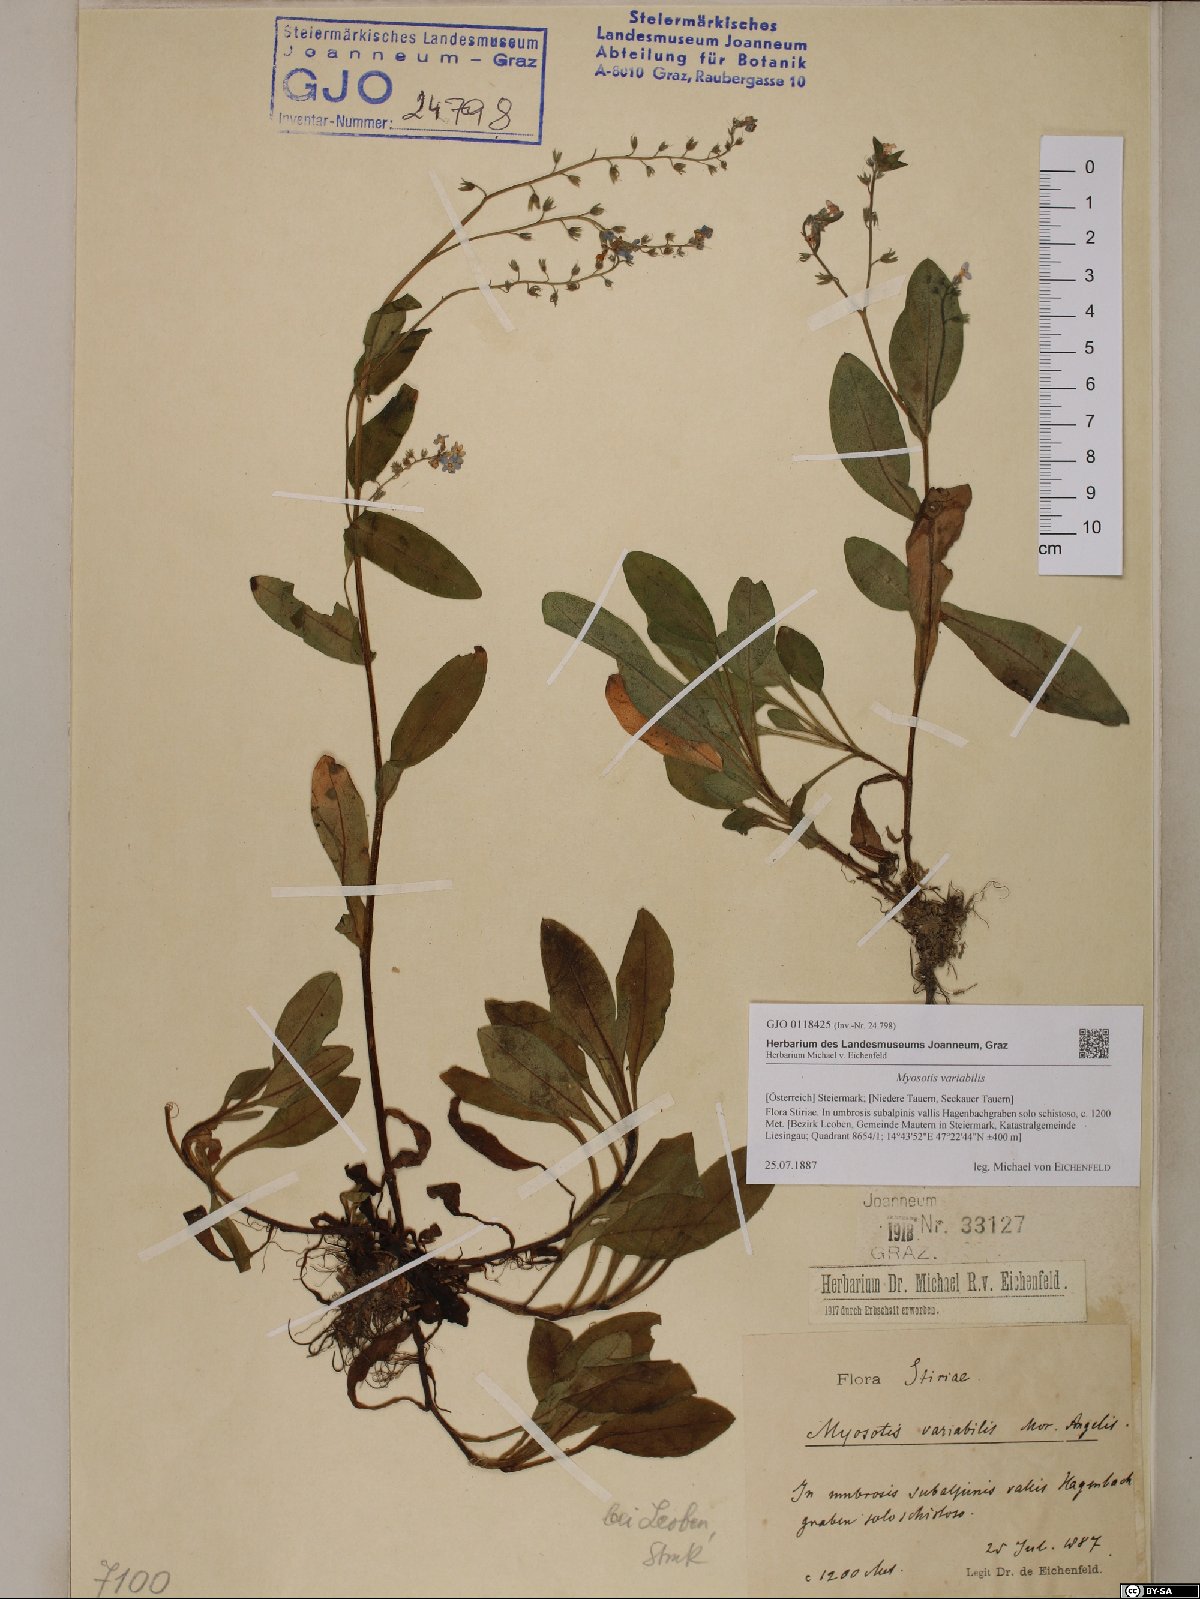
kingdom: Plantae
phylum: Tracheophyta
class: Magnoliopsida
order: Boraginales
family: Boraginaceae
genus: Myosotis
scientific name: Myosotis decumbens
